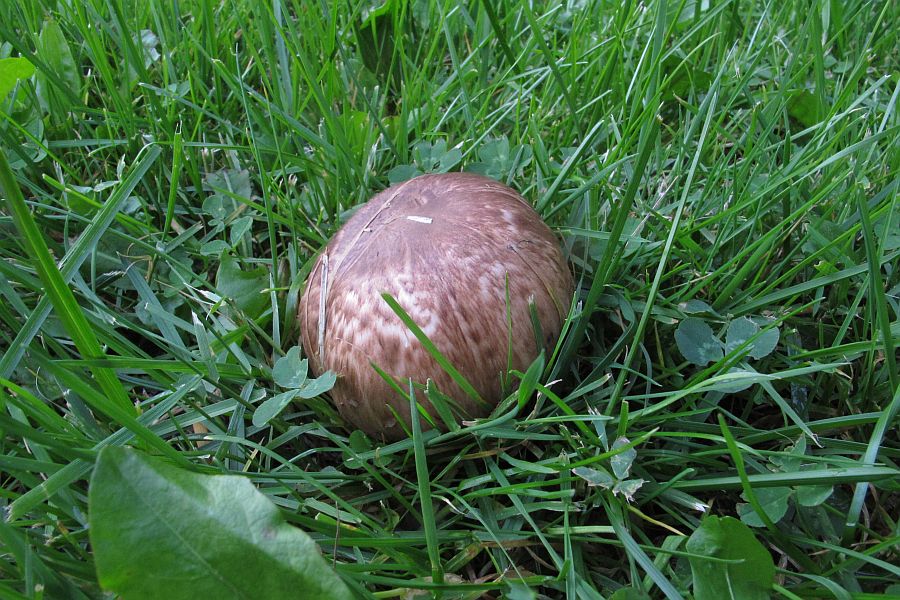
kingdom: Fungi
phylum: Basidiomycota
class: Agaricomycetes
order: Agaricales
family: Agaricaceae
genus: Agaricus
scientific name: Agaricus lanipes
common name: uldstokket champignon
